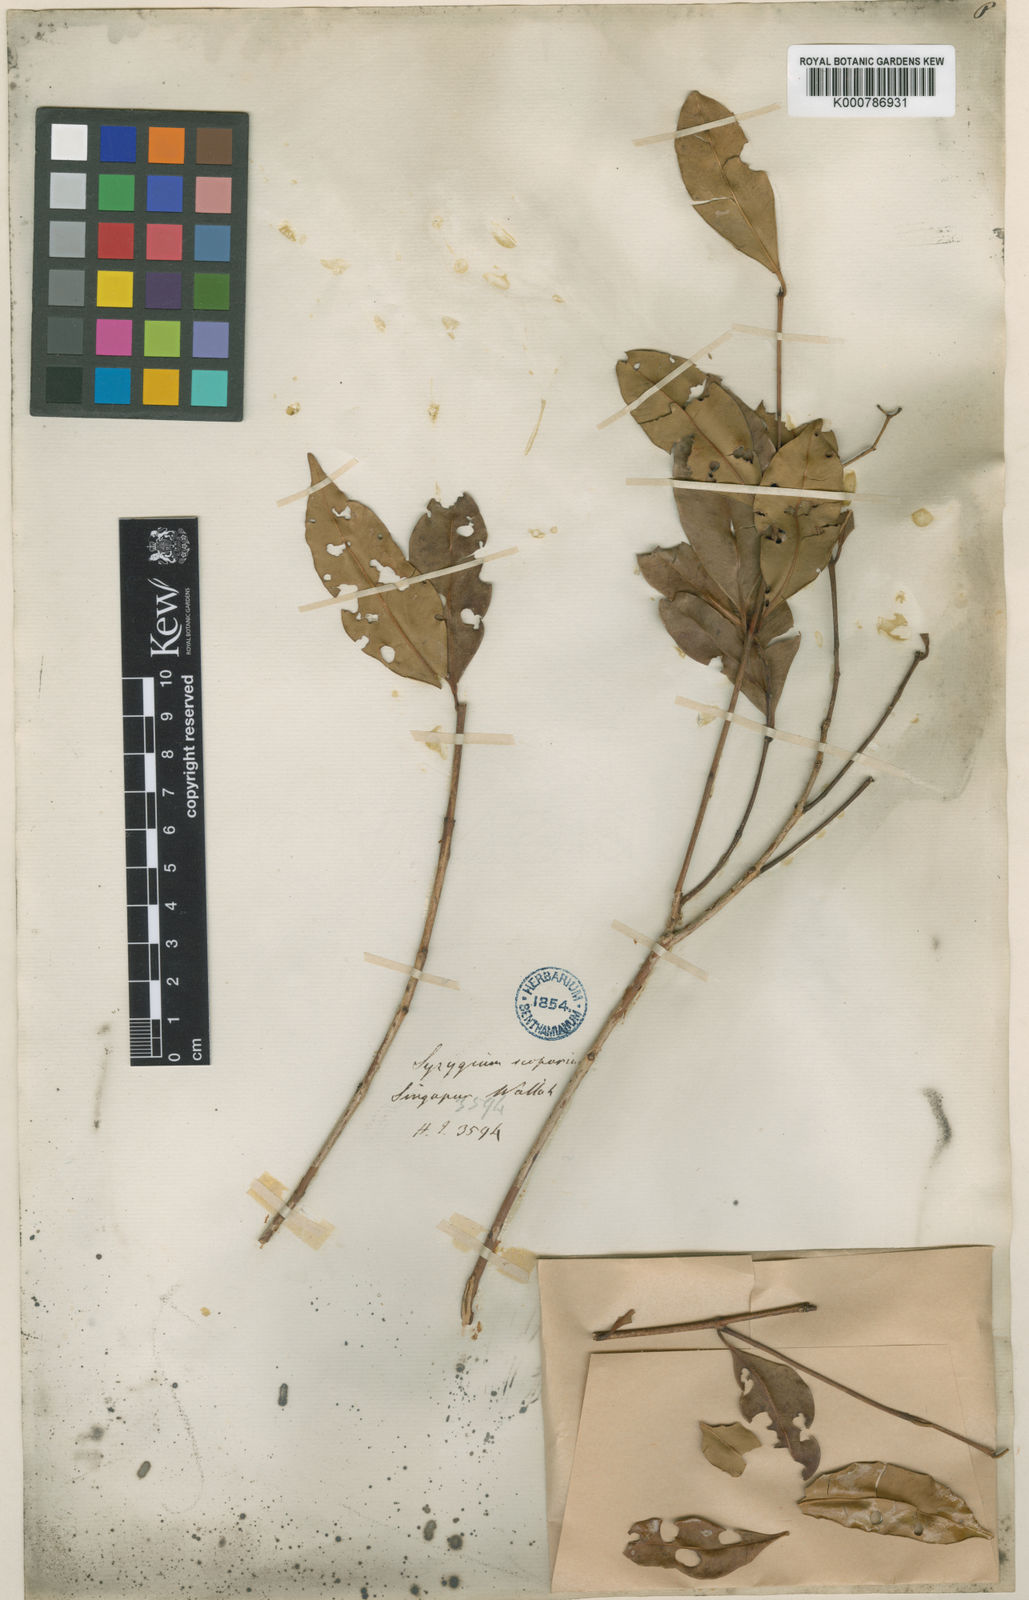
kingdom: Plantae
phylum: Tracheophyta
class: Magnoliopsida
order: Myrtales
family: Myrtaceae
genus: Syzygium
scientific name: Syzygium avene
